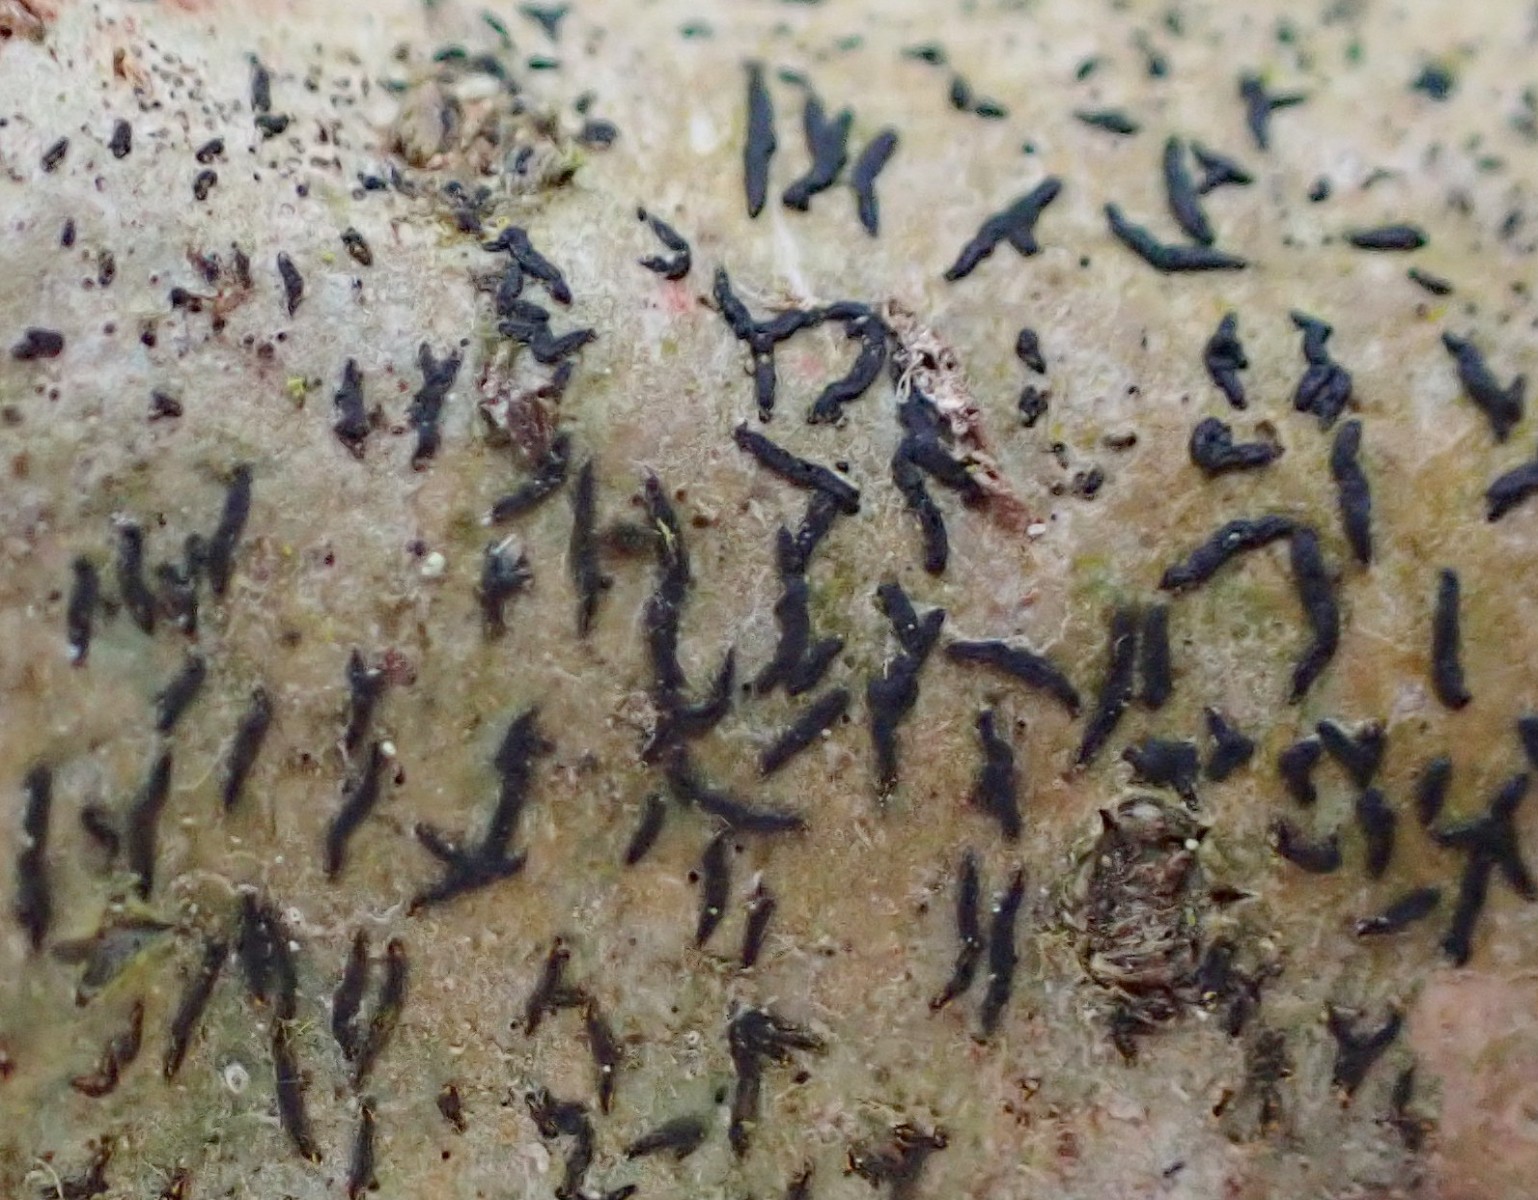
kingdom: Fungi
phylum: Ascomycota
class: Lecanoromycetes
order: Ostropales
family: Graphidaceae
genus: Graphis
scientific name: Graphis scripta
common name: almindelig skriftlav
